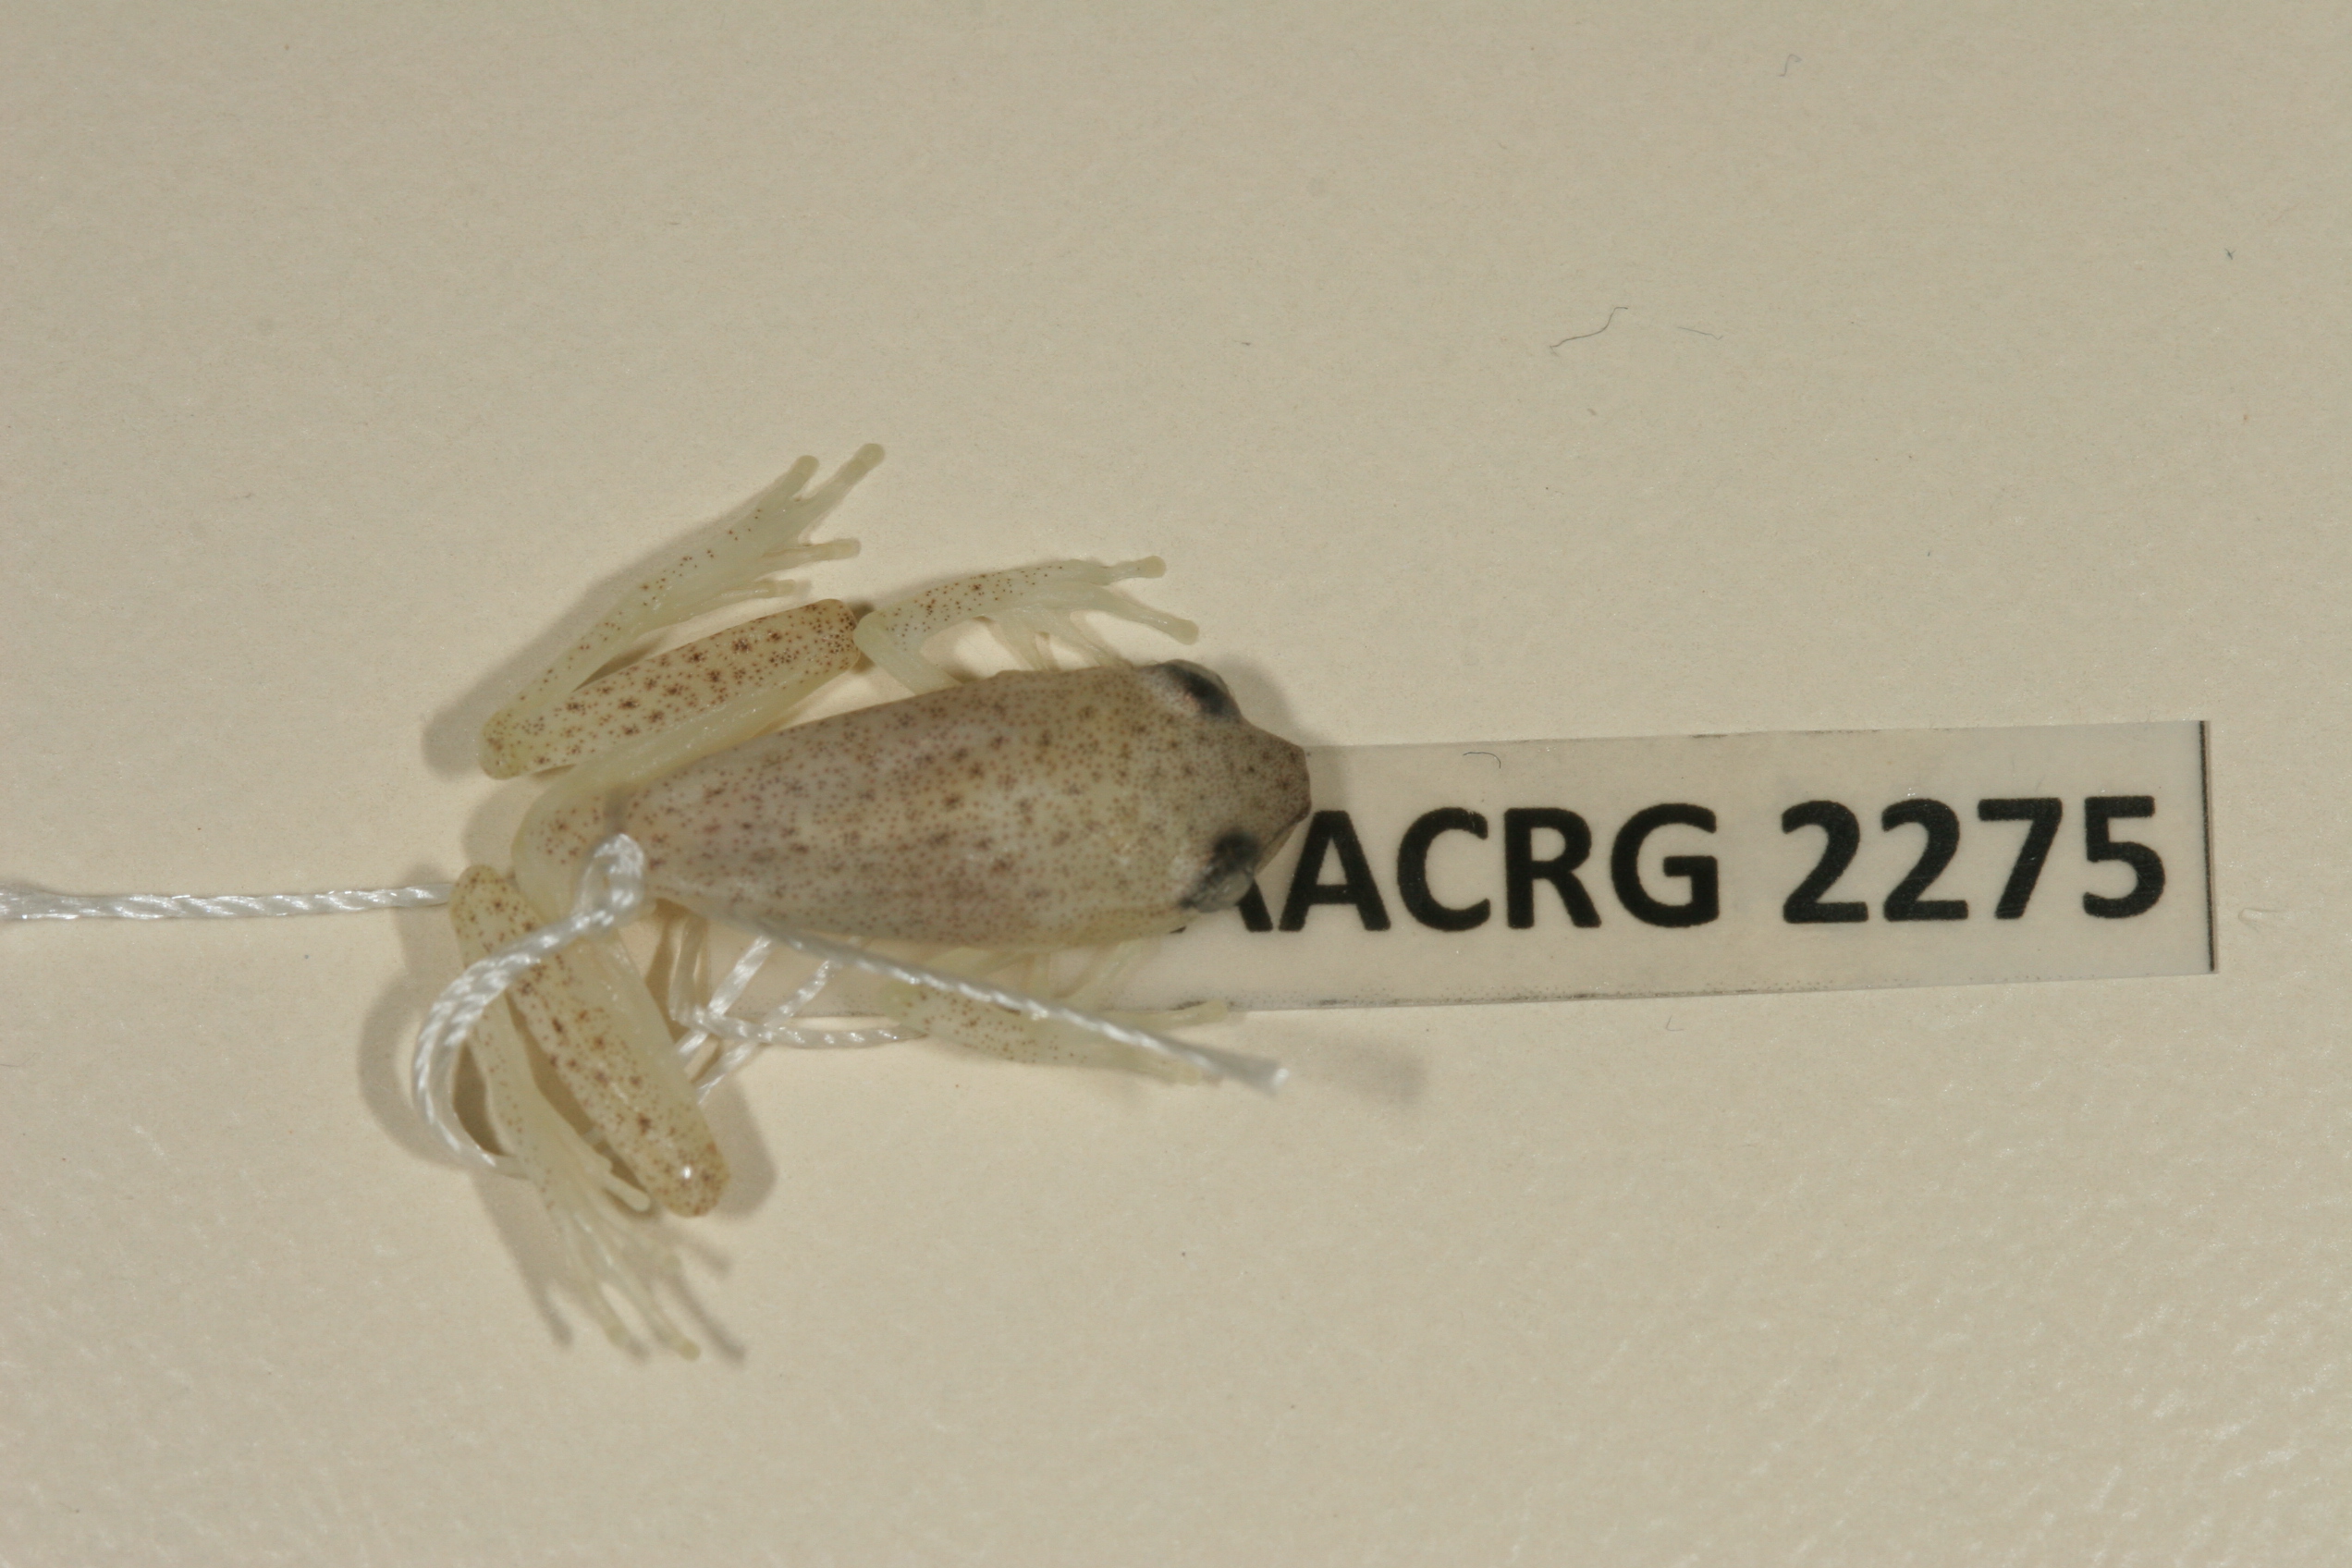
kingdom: Animalia
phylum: Chordata
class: Amphibia
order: Anura
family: Hyperoliidae
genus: Hyperolius
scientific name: Hyperolius pusillus
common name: Water lily reed frog
